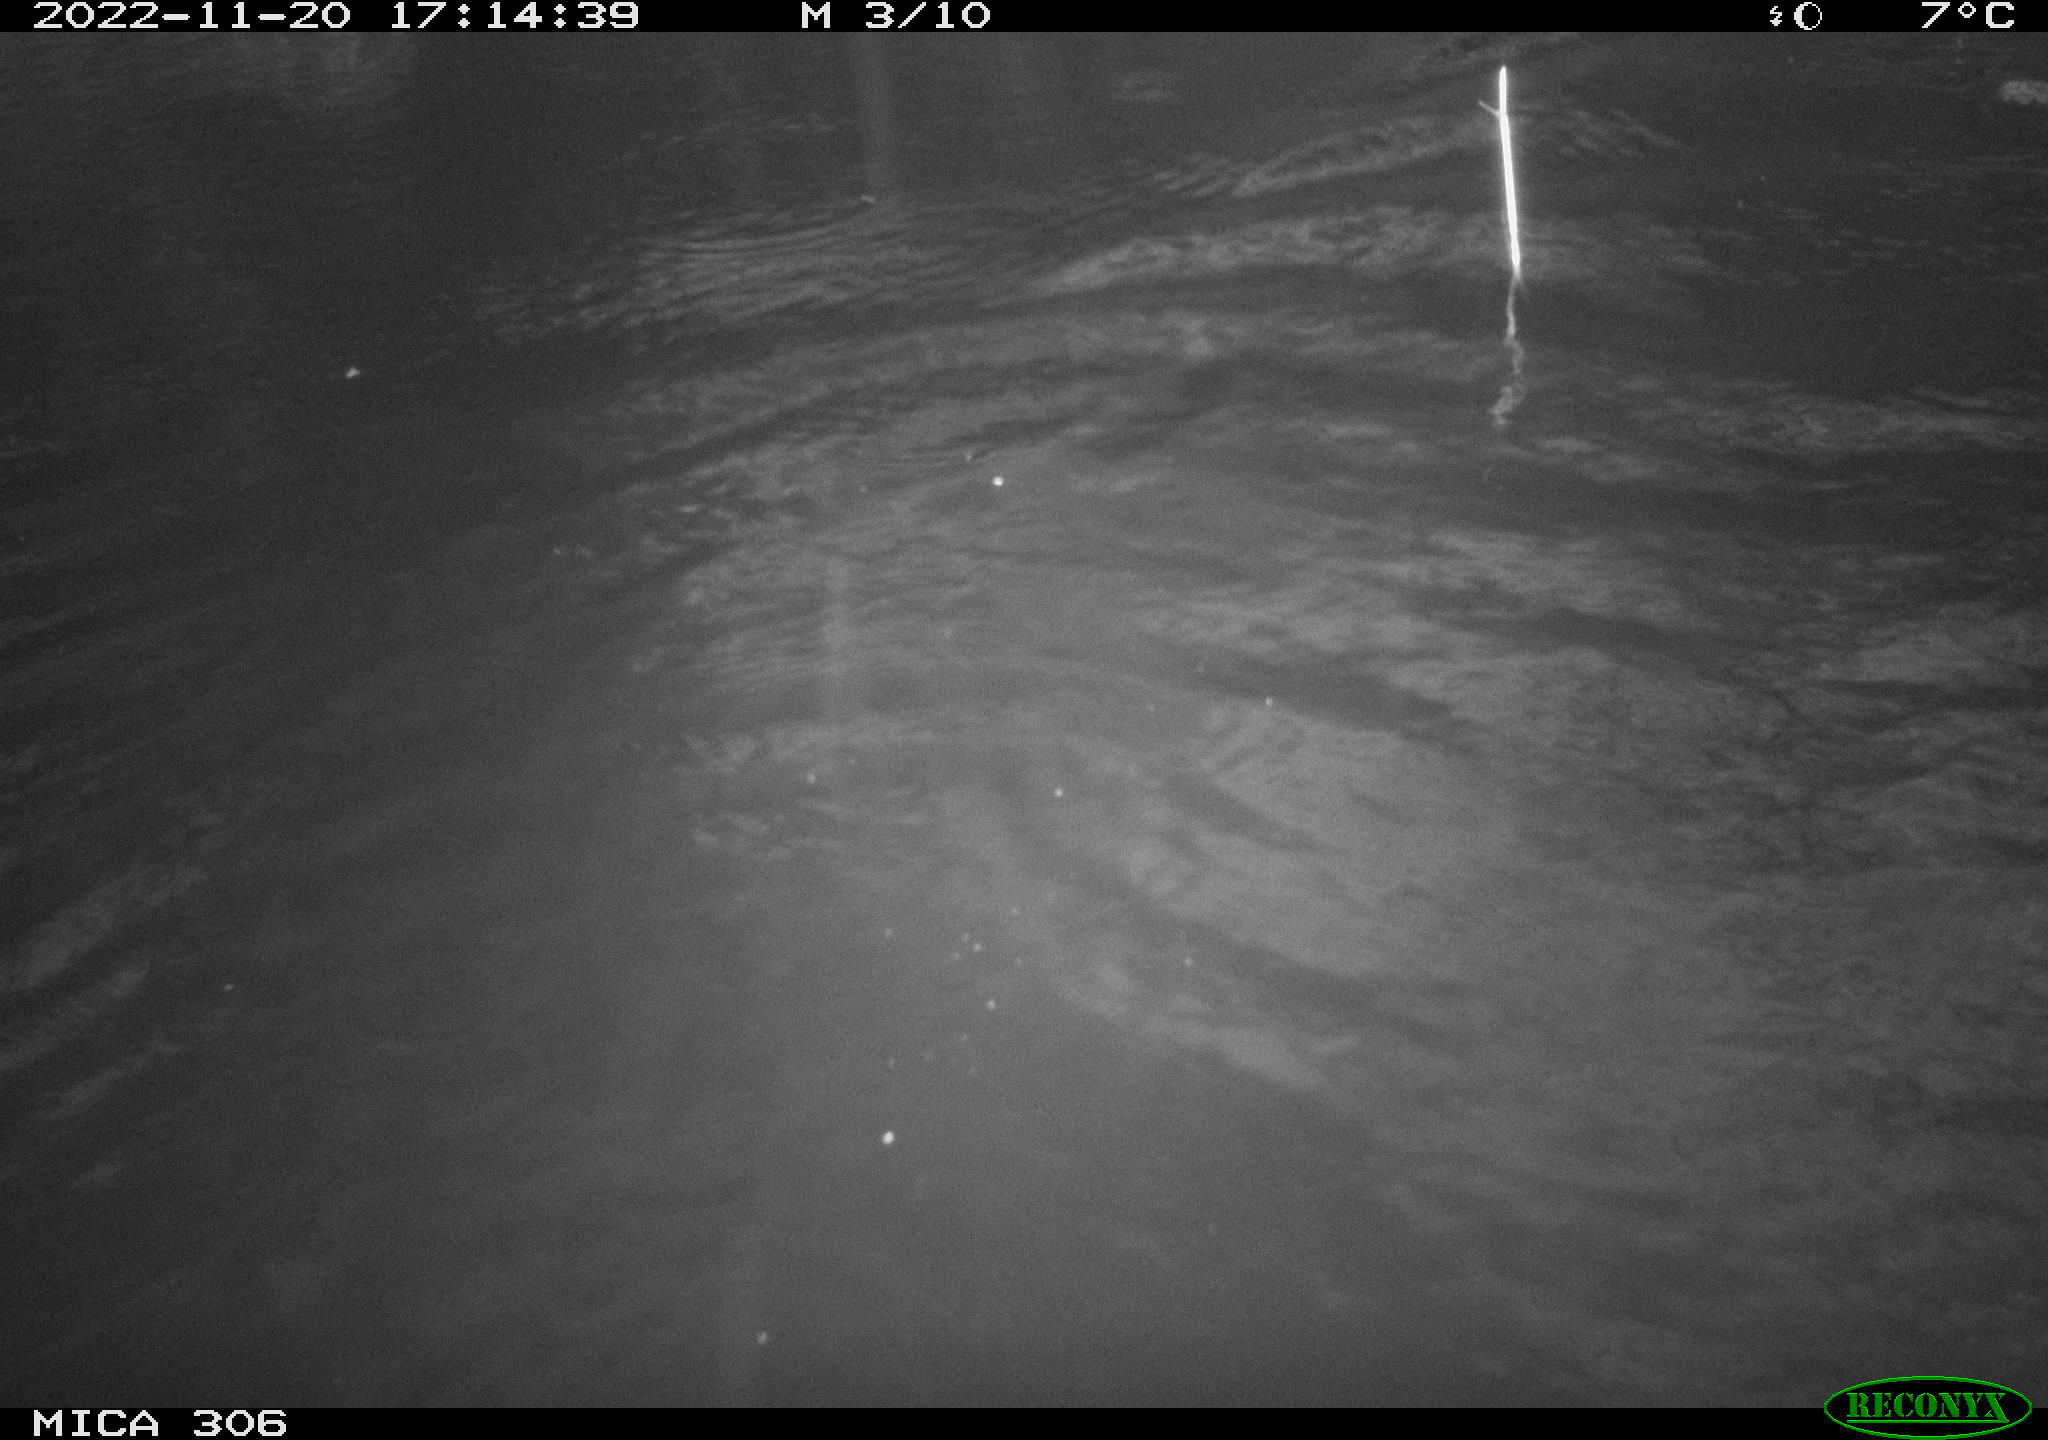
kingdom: Animalia
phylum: Chordata
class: Mammalia
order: Rodentia
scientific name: Rodentia
